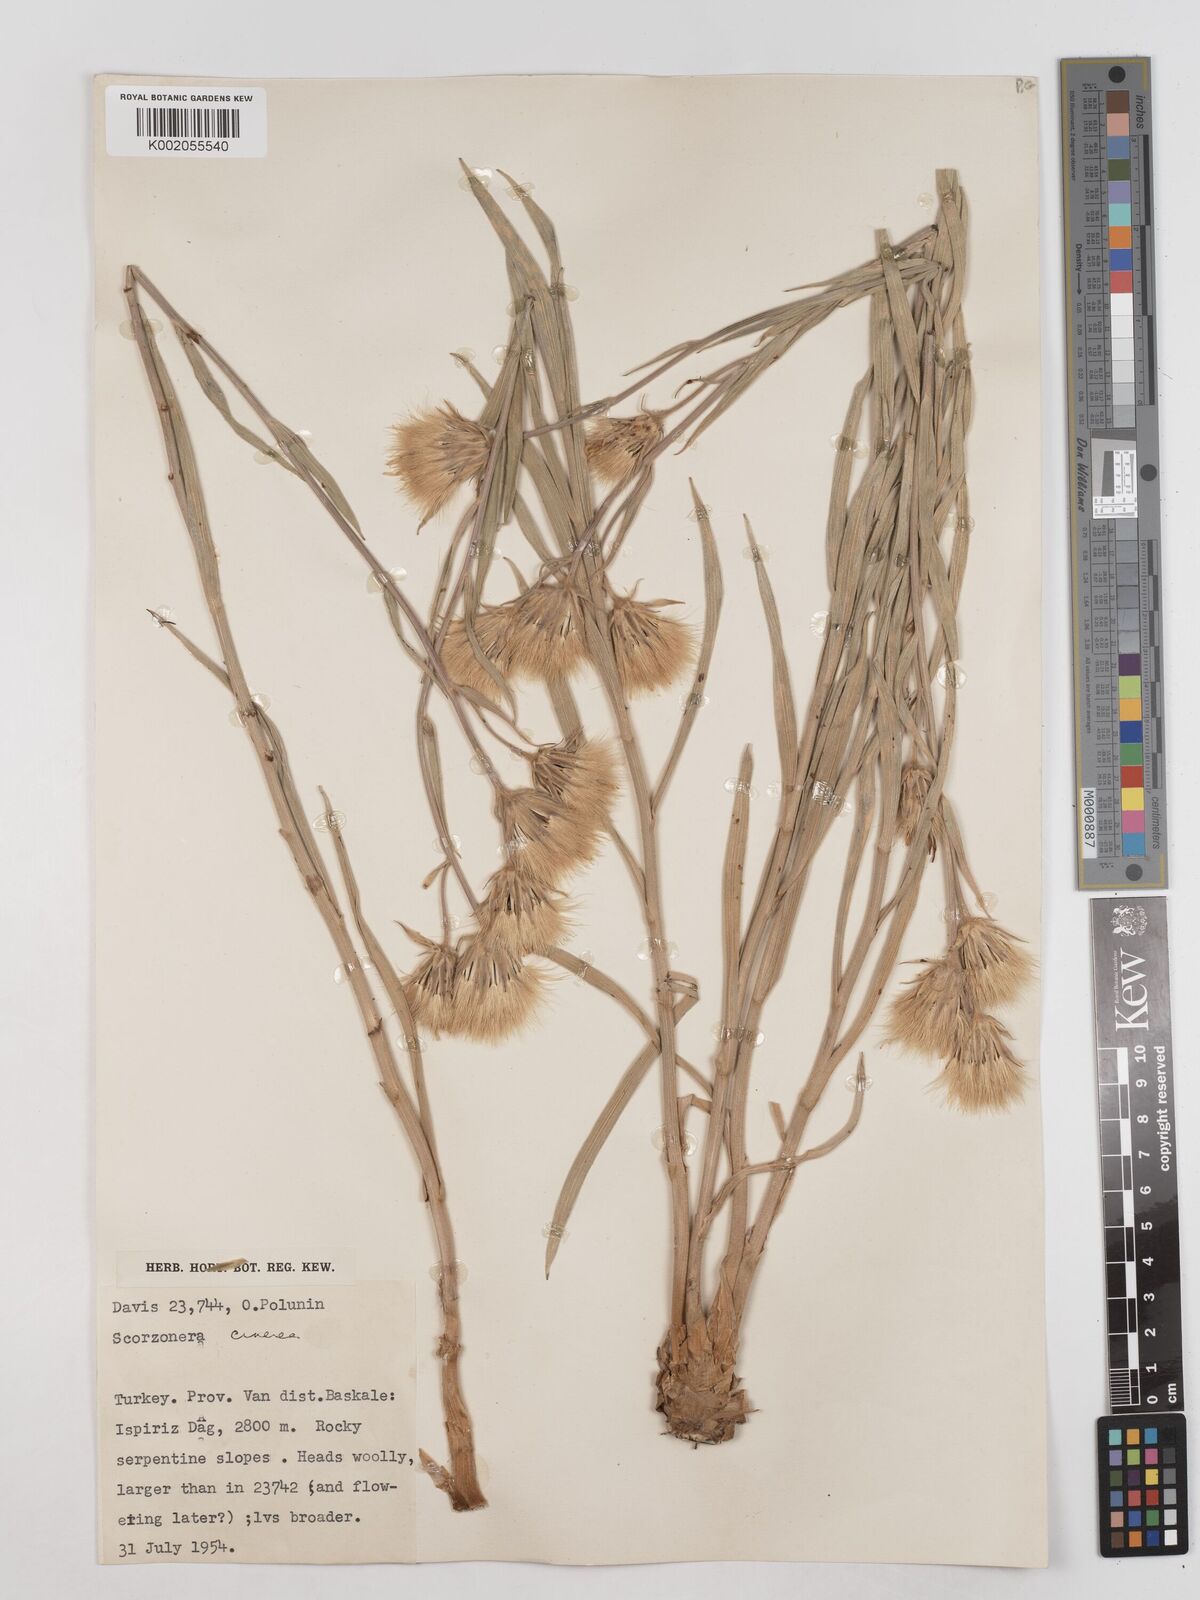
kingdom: Plantae
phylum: Tracheophyta
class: Magnoliopsida
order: Asterales
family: Asteraceae
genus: Cigdemia
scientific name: Cigdemia cinerea
